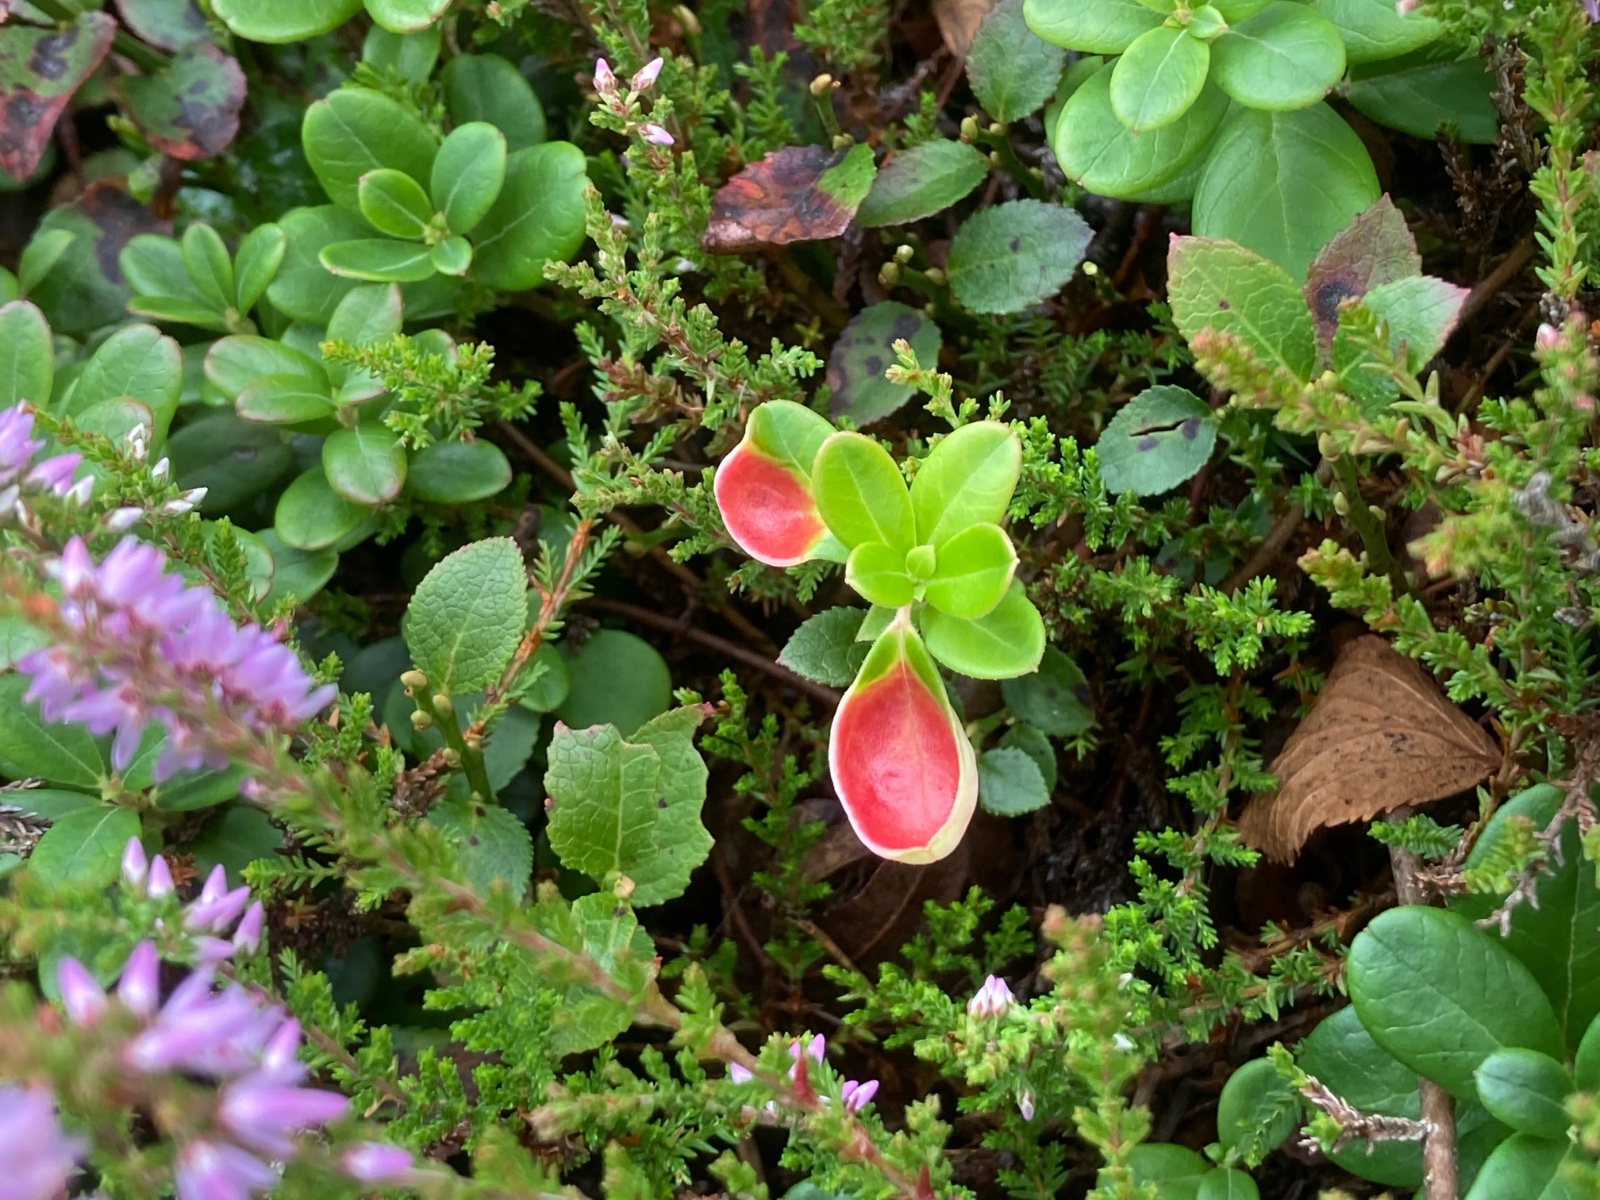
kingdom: Fungi
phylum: Basidiomycota
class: Exobasidiomycetes
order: Exobasidiales
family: Exobasidiaceae
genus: Exobasidium
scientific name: Exobasidium vaccinii
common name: tyttebærblad-bøllesvamp
